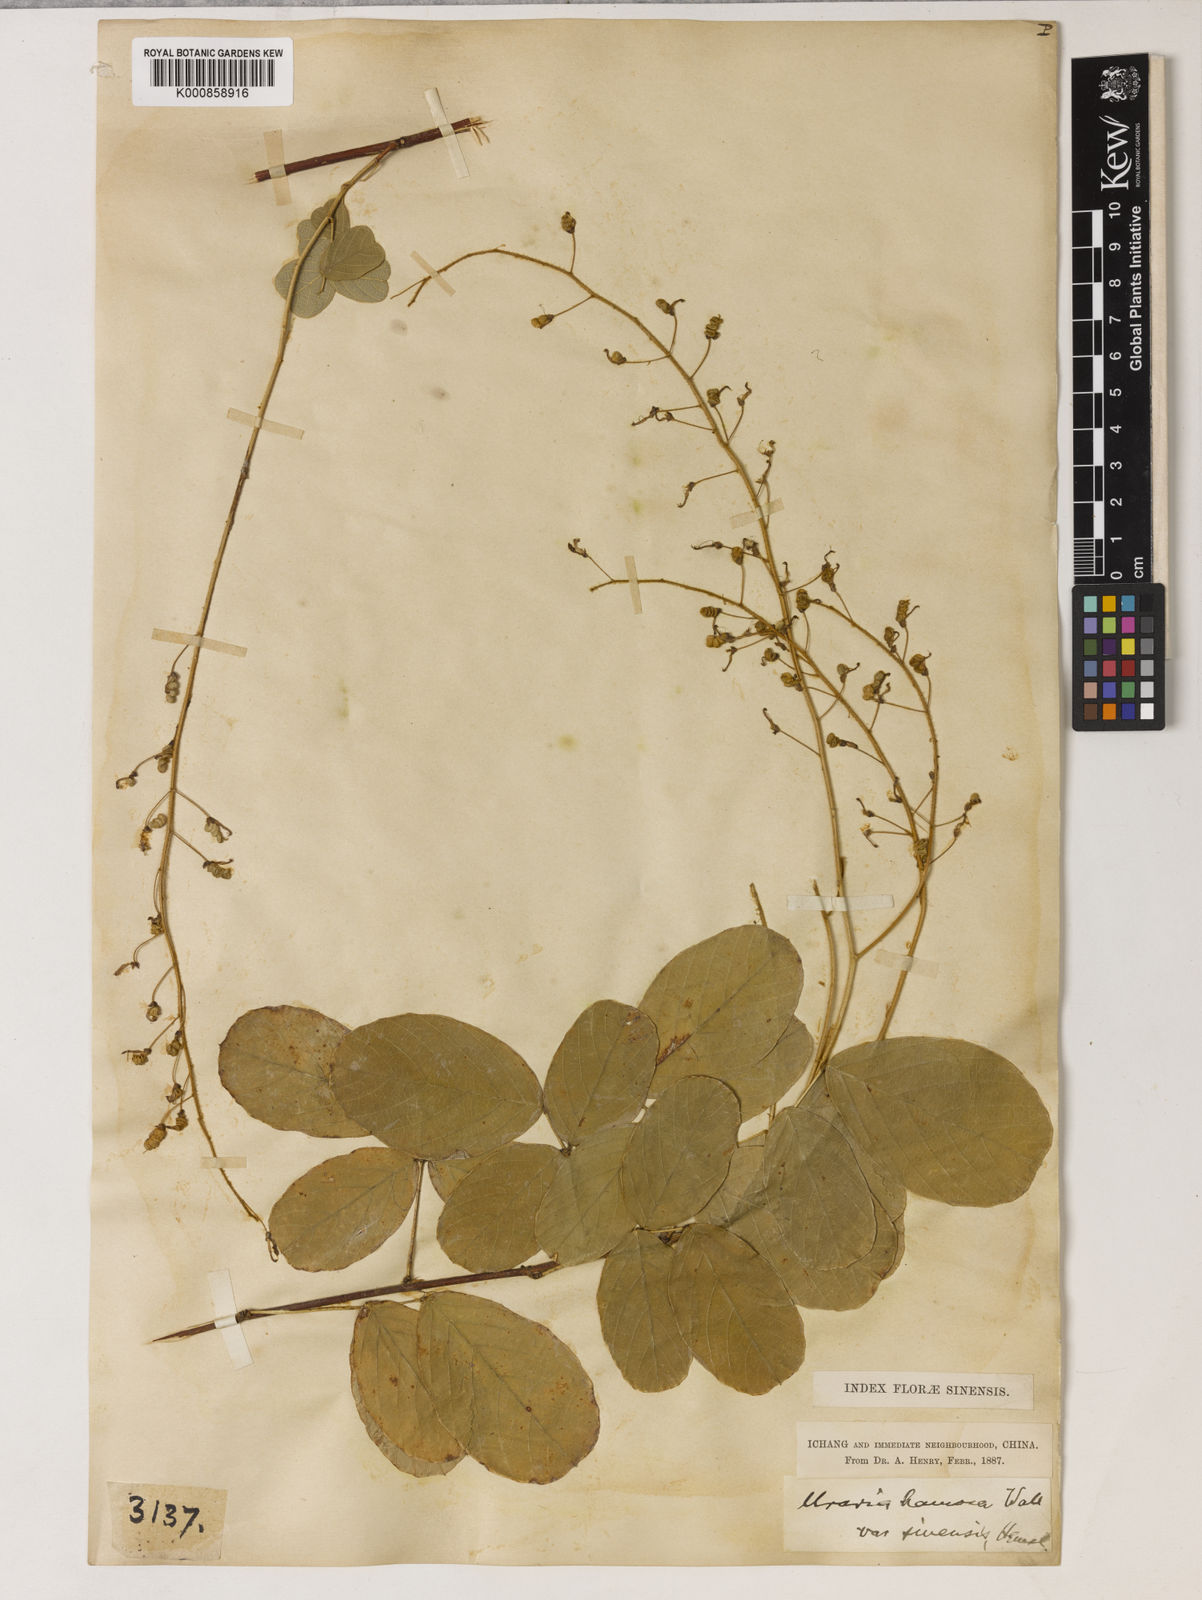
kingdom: Plantae
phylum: Tracheophyta
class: Magnoliopsida
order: Fabales
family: Fabaceae
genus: Uraria
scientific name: Uraria rufescens
